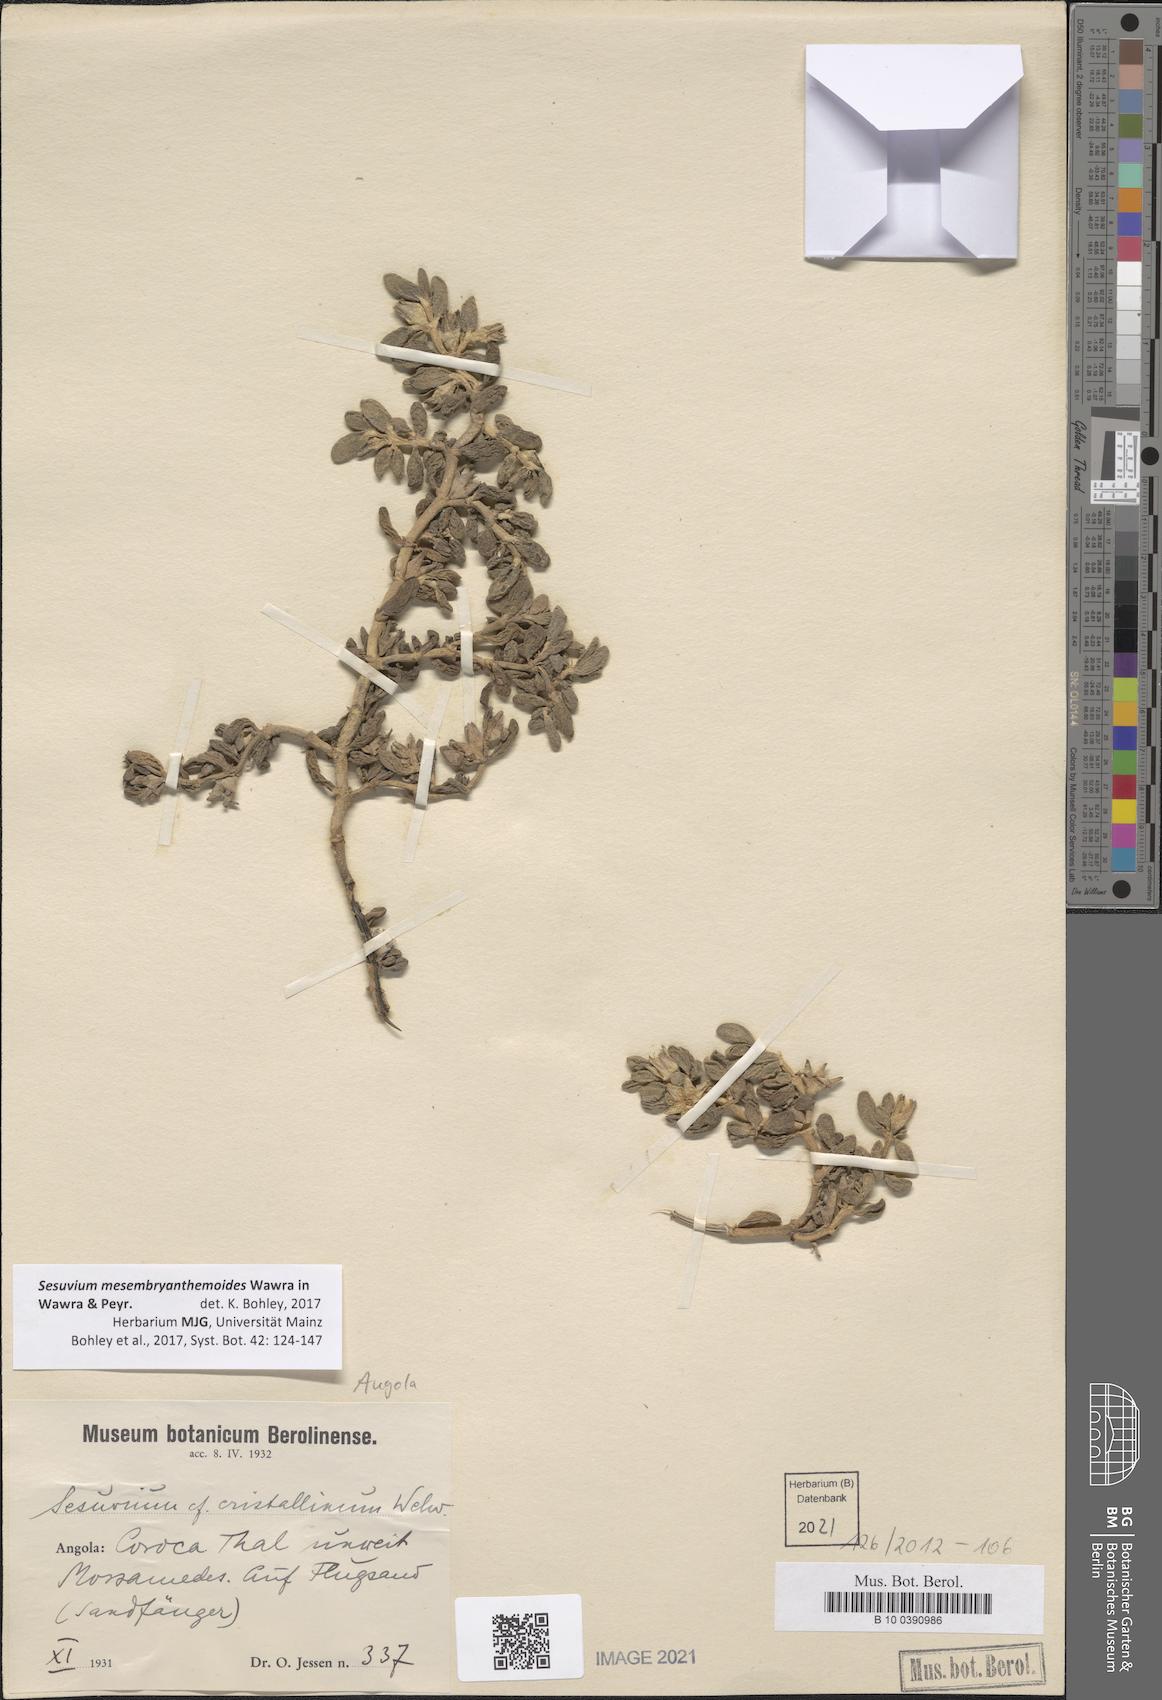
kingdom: Plantae
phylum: Tracheophyta
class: Magnoliopsida
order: Caryophyllales
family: Aizoaceae
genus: Sesuvium
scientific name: Sesuvium crithmoides
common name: Tropical seapurslane
